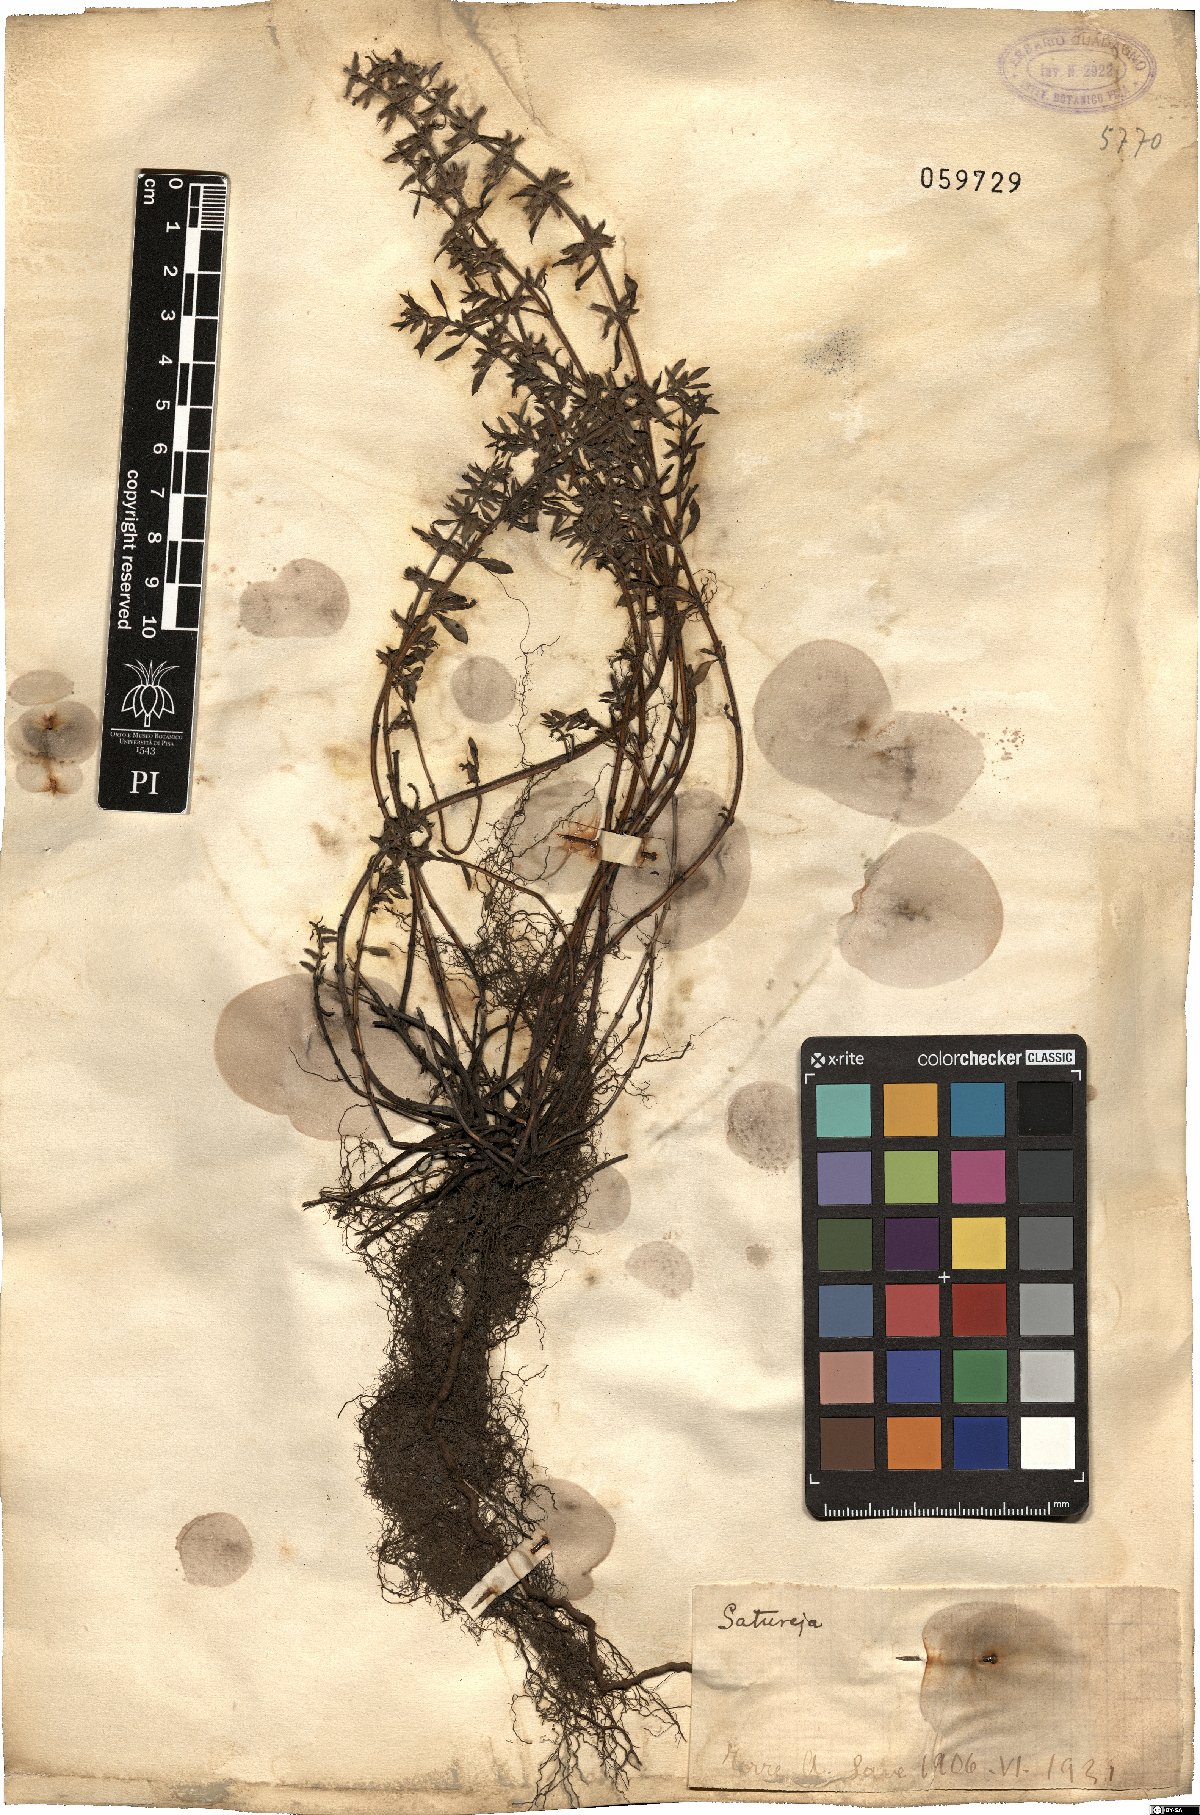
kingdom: Plantae
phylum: Tracheophyta
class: Magnoliopsida
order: Lamiales
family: Lamiaceae
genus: Satureja
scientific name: Satureja
